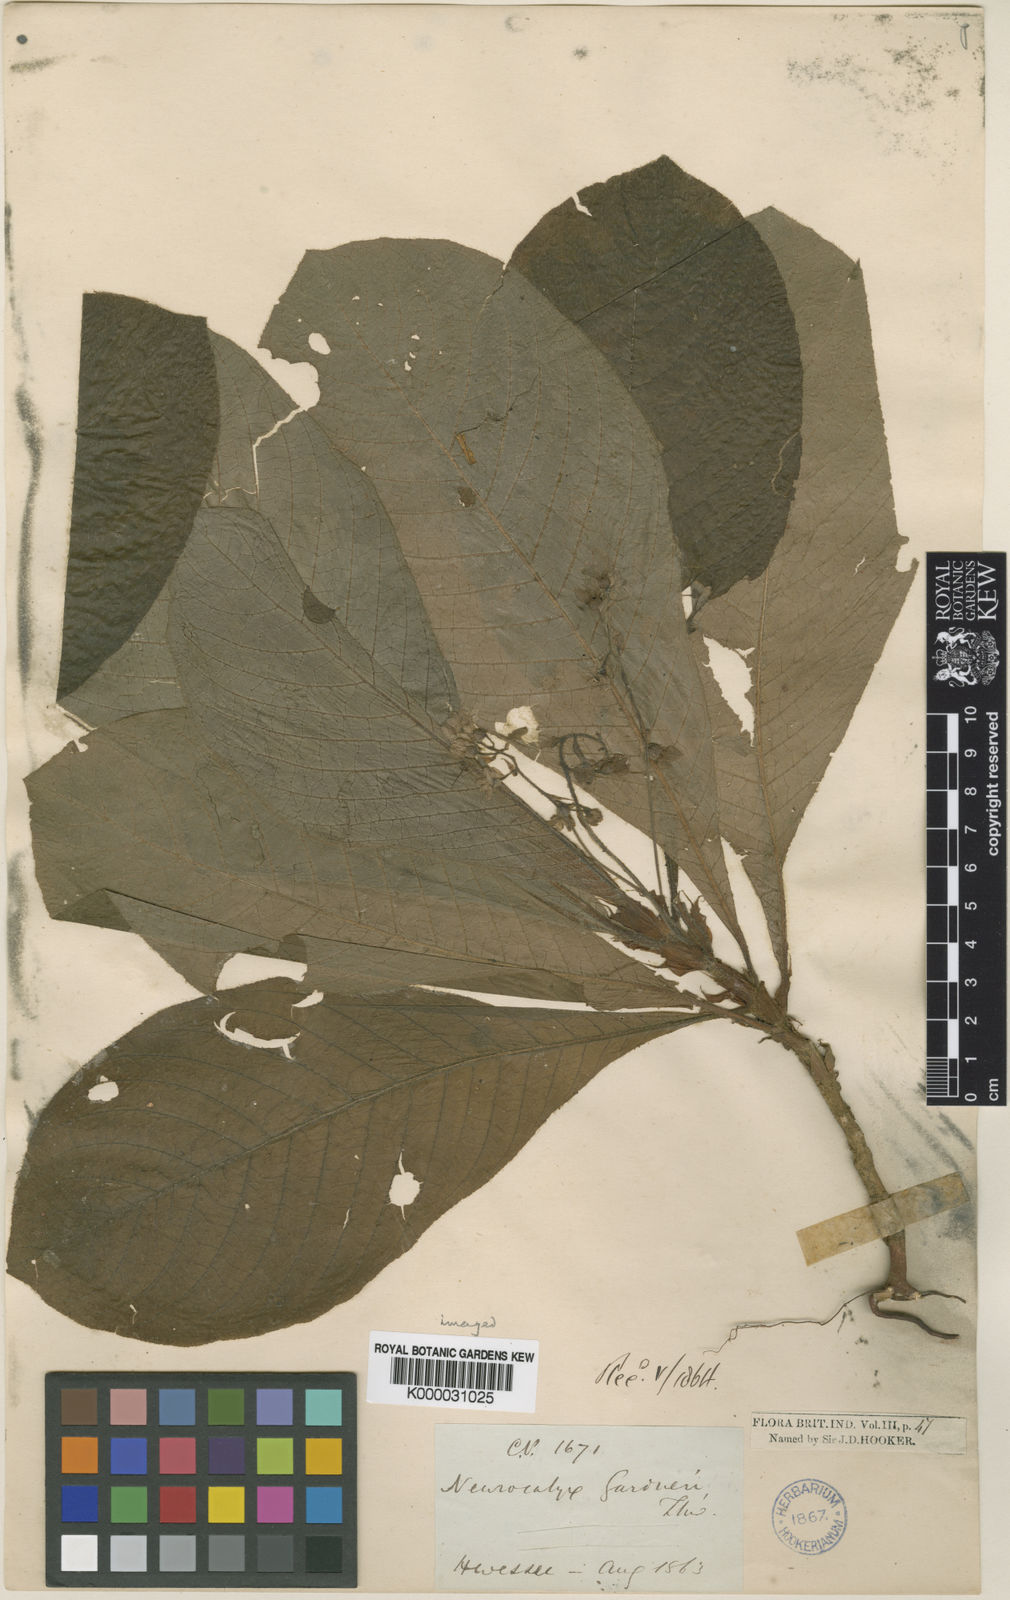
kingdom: Plantae
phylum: Tracheophyta
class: Magnoliopsida
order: Gentianales
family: Rubiaceae
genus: Neurocalyx
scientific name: Neurocalyx gardneri
